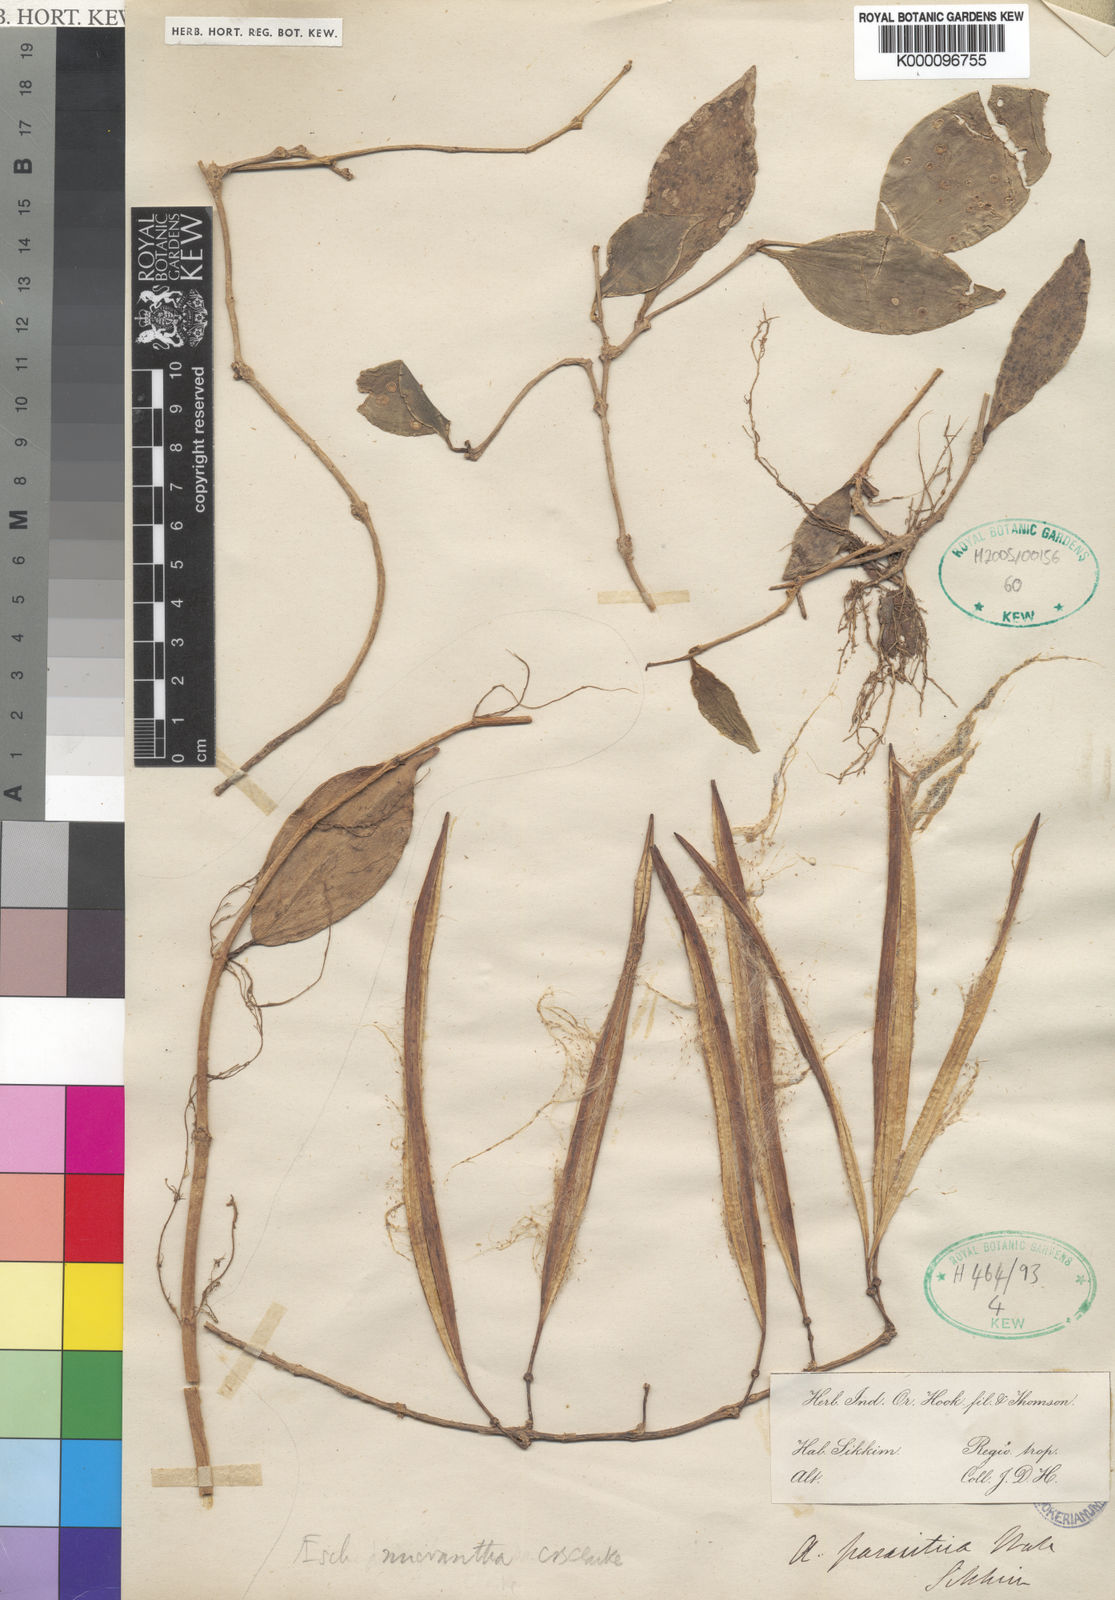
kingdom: Plantae
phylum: Tracheophyta
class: Magnoliopsida
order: Lamiales
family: Gesneriaceae
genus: Aeschynanthus
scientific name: Aeschynanthus micranthus
